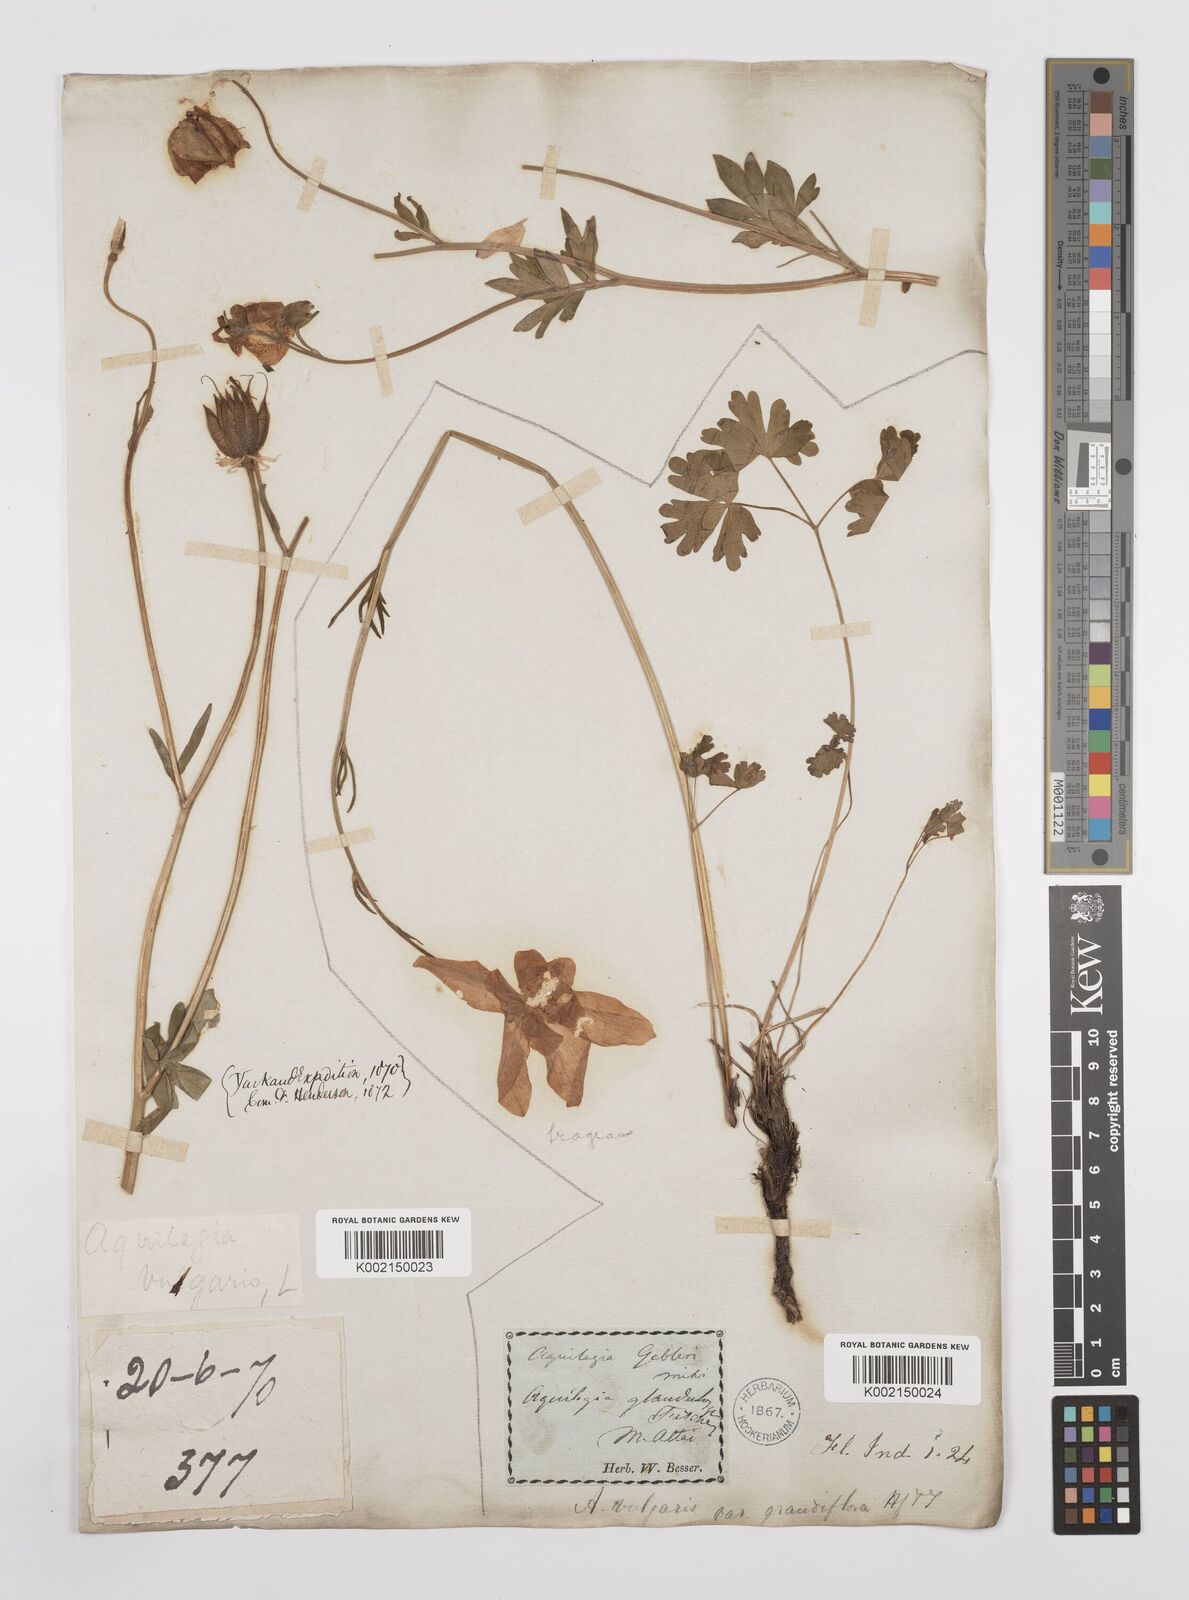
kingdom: Plantae
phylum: Tracheophyta
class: Magnoliopsida
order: Ranunculales
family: Ranunculaceae
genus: Aquilegia
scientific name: Aquilegia fragrans
